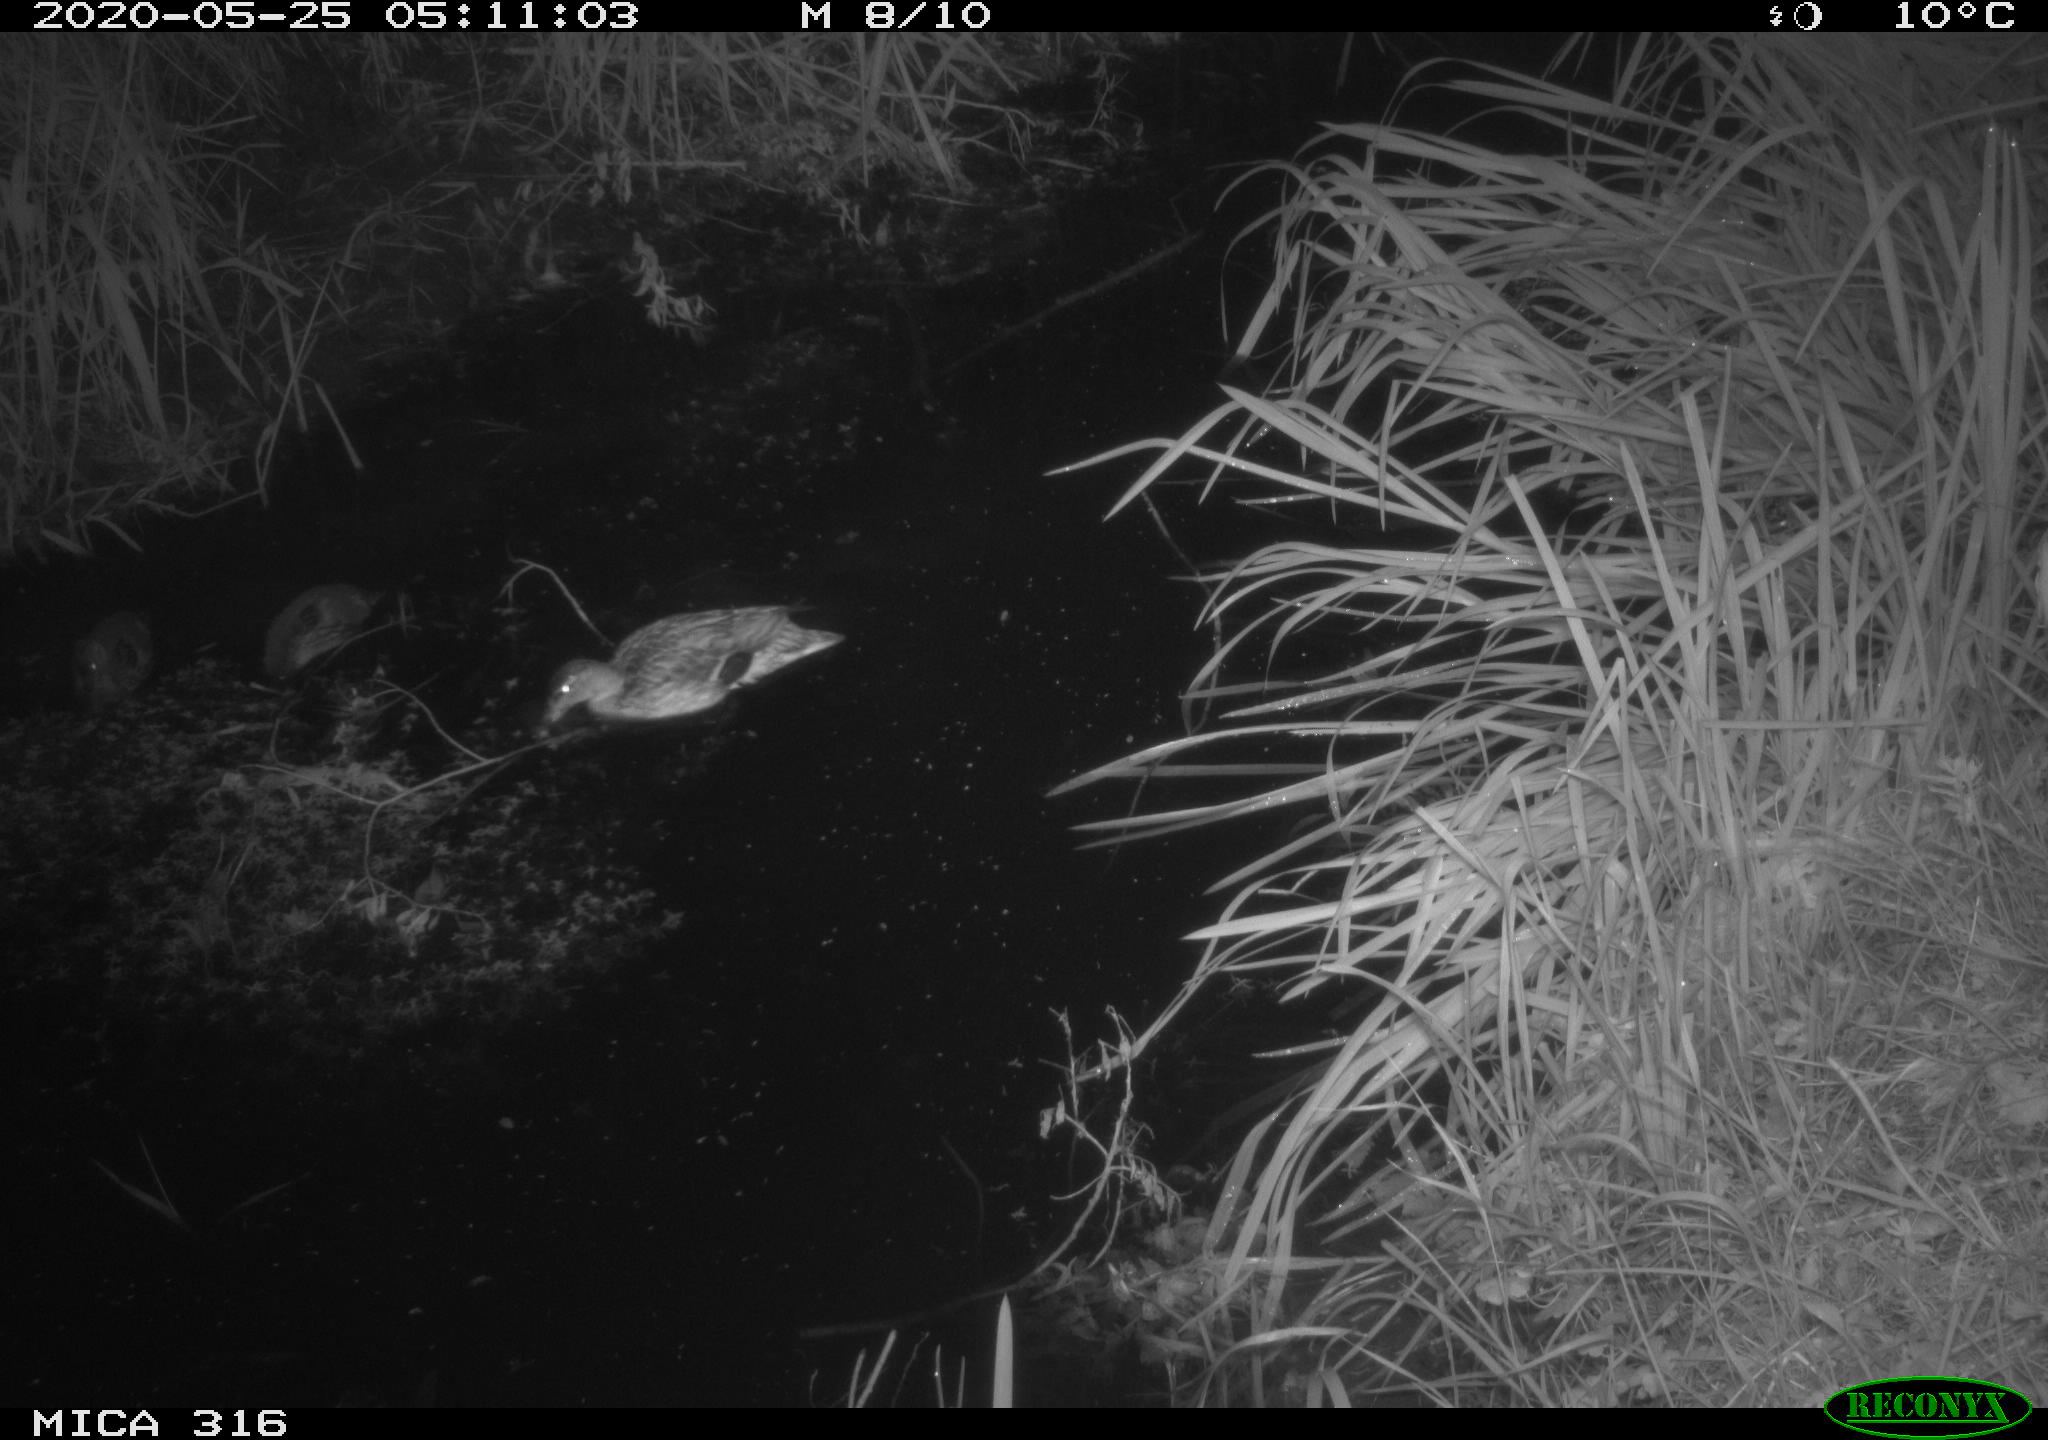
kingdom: Animalia
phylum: Chordata
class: Aves
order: Anseriformes
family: Anatidae
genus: Anas
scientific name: Anas platyrhynchos
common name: Mallard
